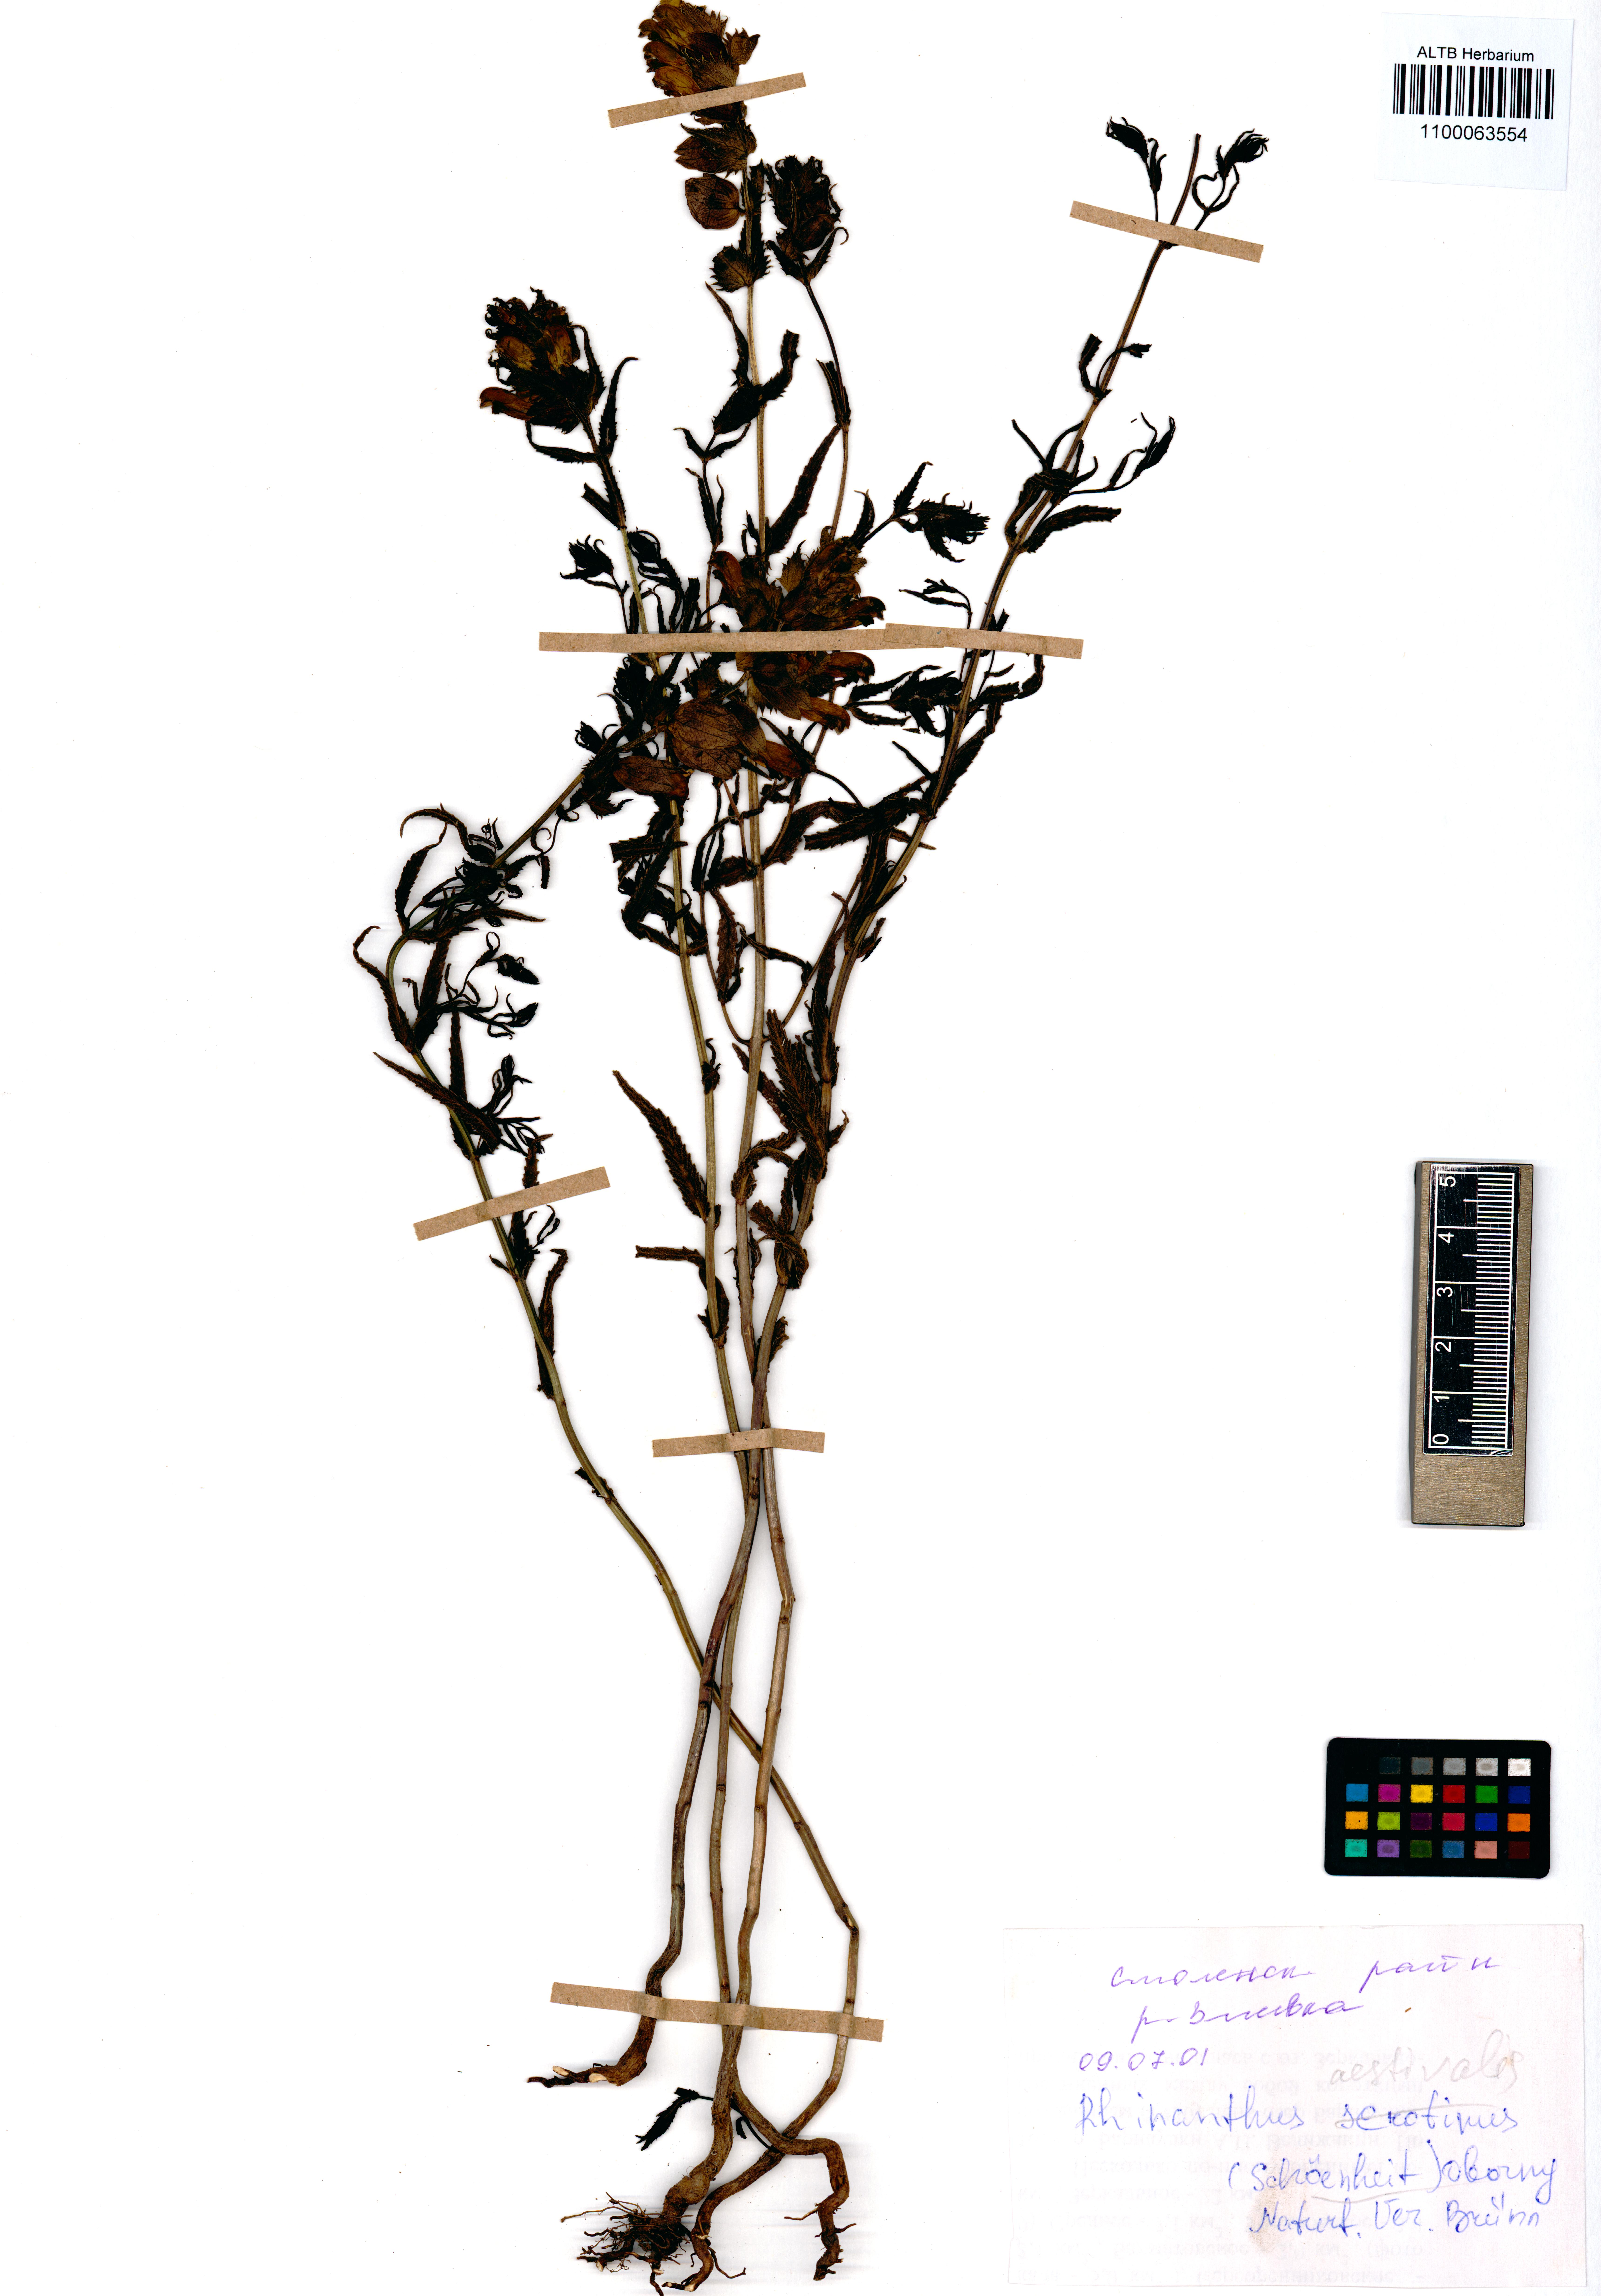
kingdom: Plantae
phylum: Tracheophyta
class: Magnoliopsida
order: Lamiales
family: Orobanchaceae
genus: Rhinanthus
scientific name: Rhinanthus serotinus
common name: Late-flowering yellow rattle
